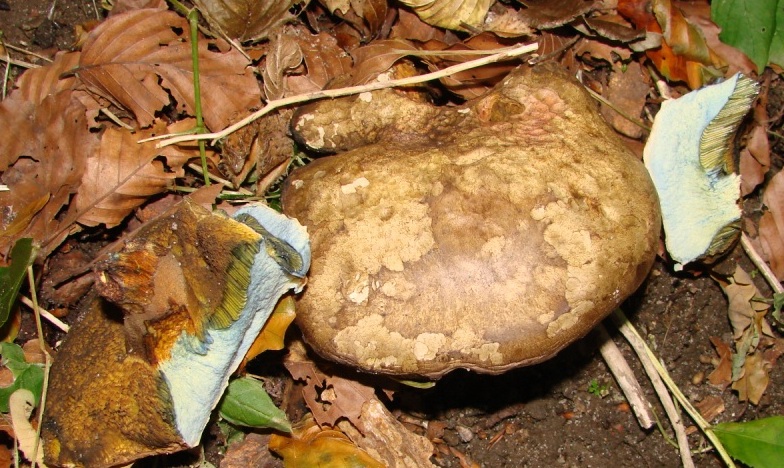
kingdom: Fungi
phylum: Basidiomycota
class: Agaricomycetes
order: Boletales
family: Boletaceae
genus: Cyanoboletus
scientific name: Cyanoboletus pulverulentus
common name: sortblånende rørhat
